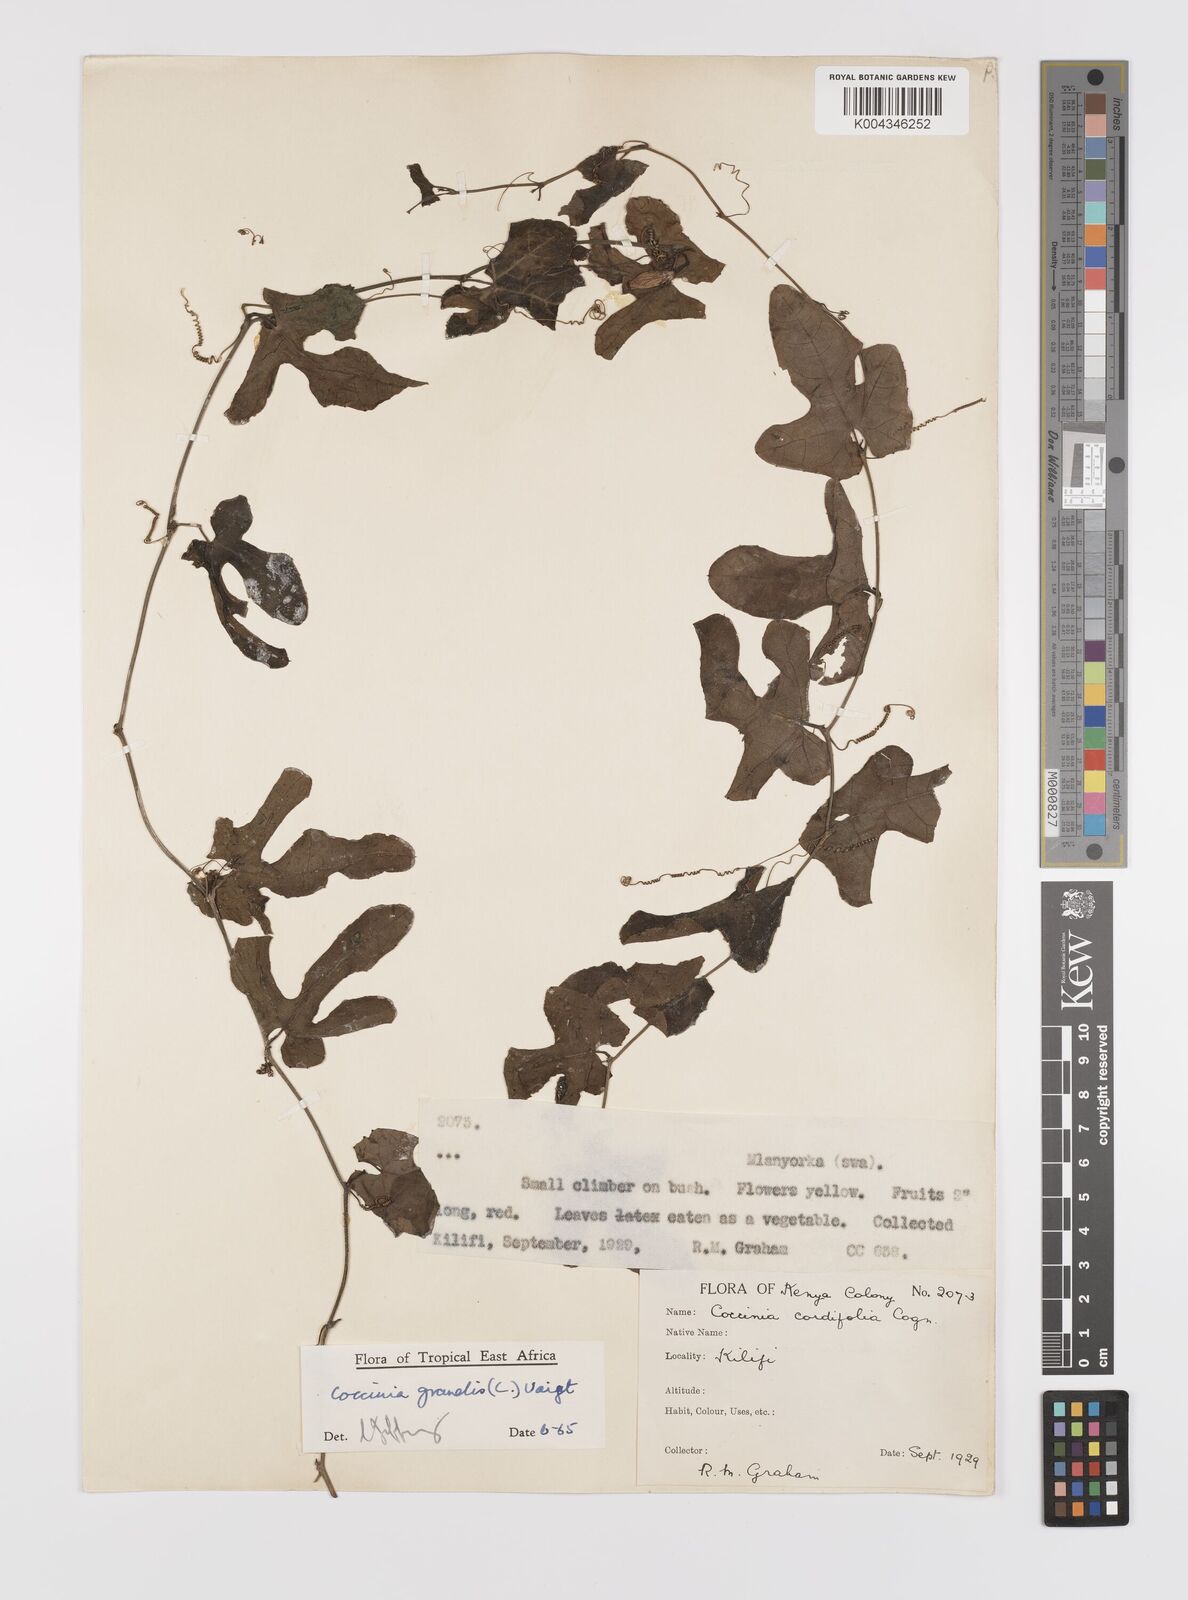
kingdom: Plantae
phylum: Tracheophyta
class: Magnoliopsida
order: Cucurbitales
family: Cucurbitaceae
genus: Coccinia
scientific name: Coccinia grandis
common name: Ivy gourd
